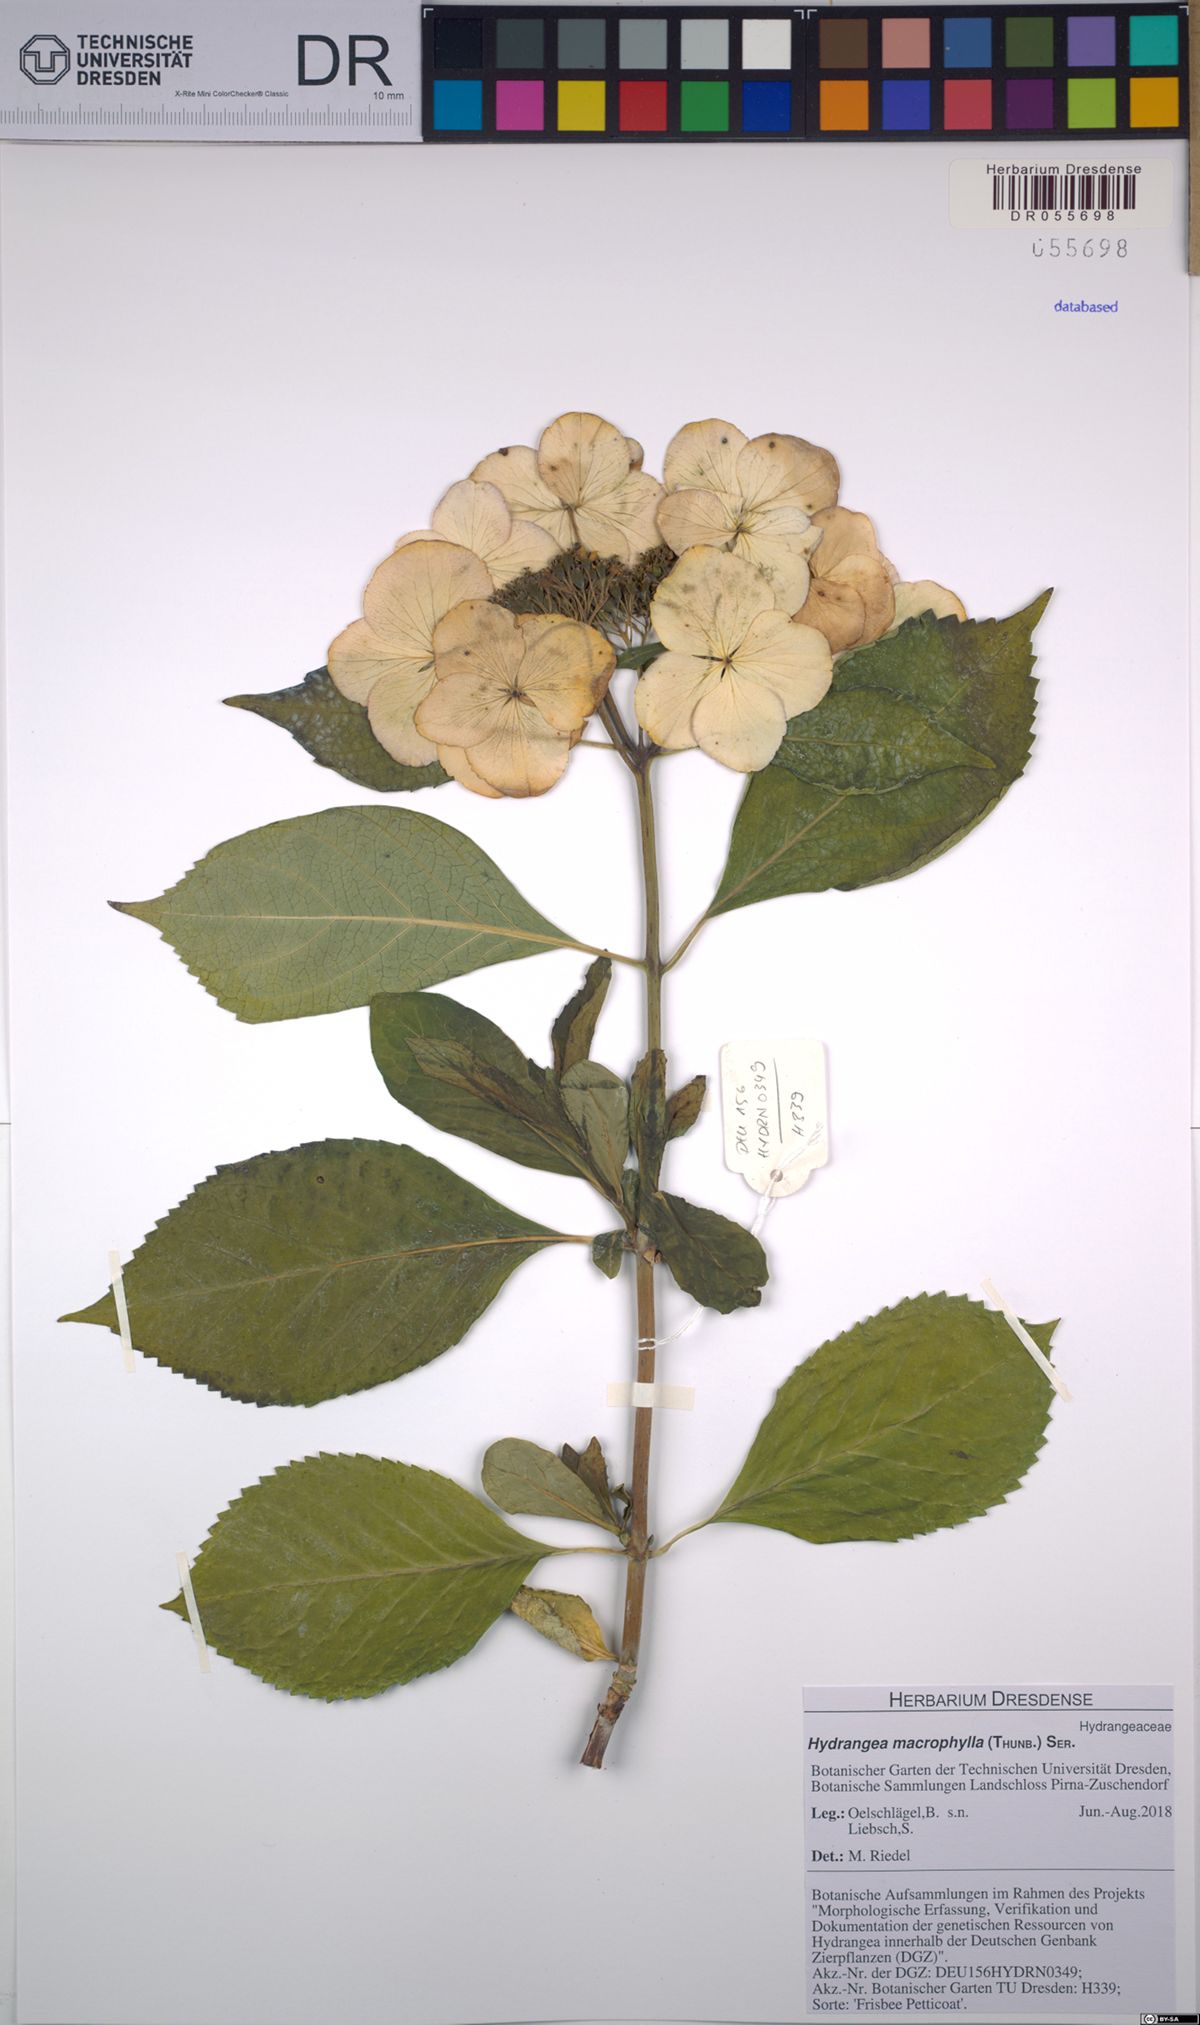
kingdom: Plantae
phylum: Tracheophyta
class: Magnoliopsida
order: Cornales
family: Hydrangeaceae
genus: Hydrangea
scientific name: Hydrangea macrophylla
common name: Hydrangea
